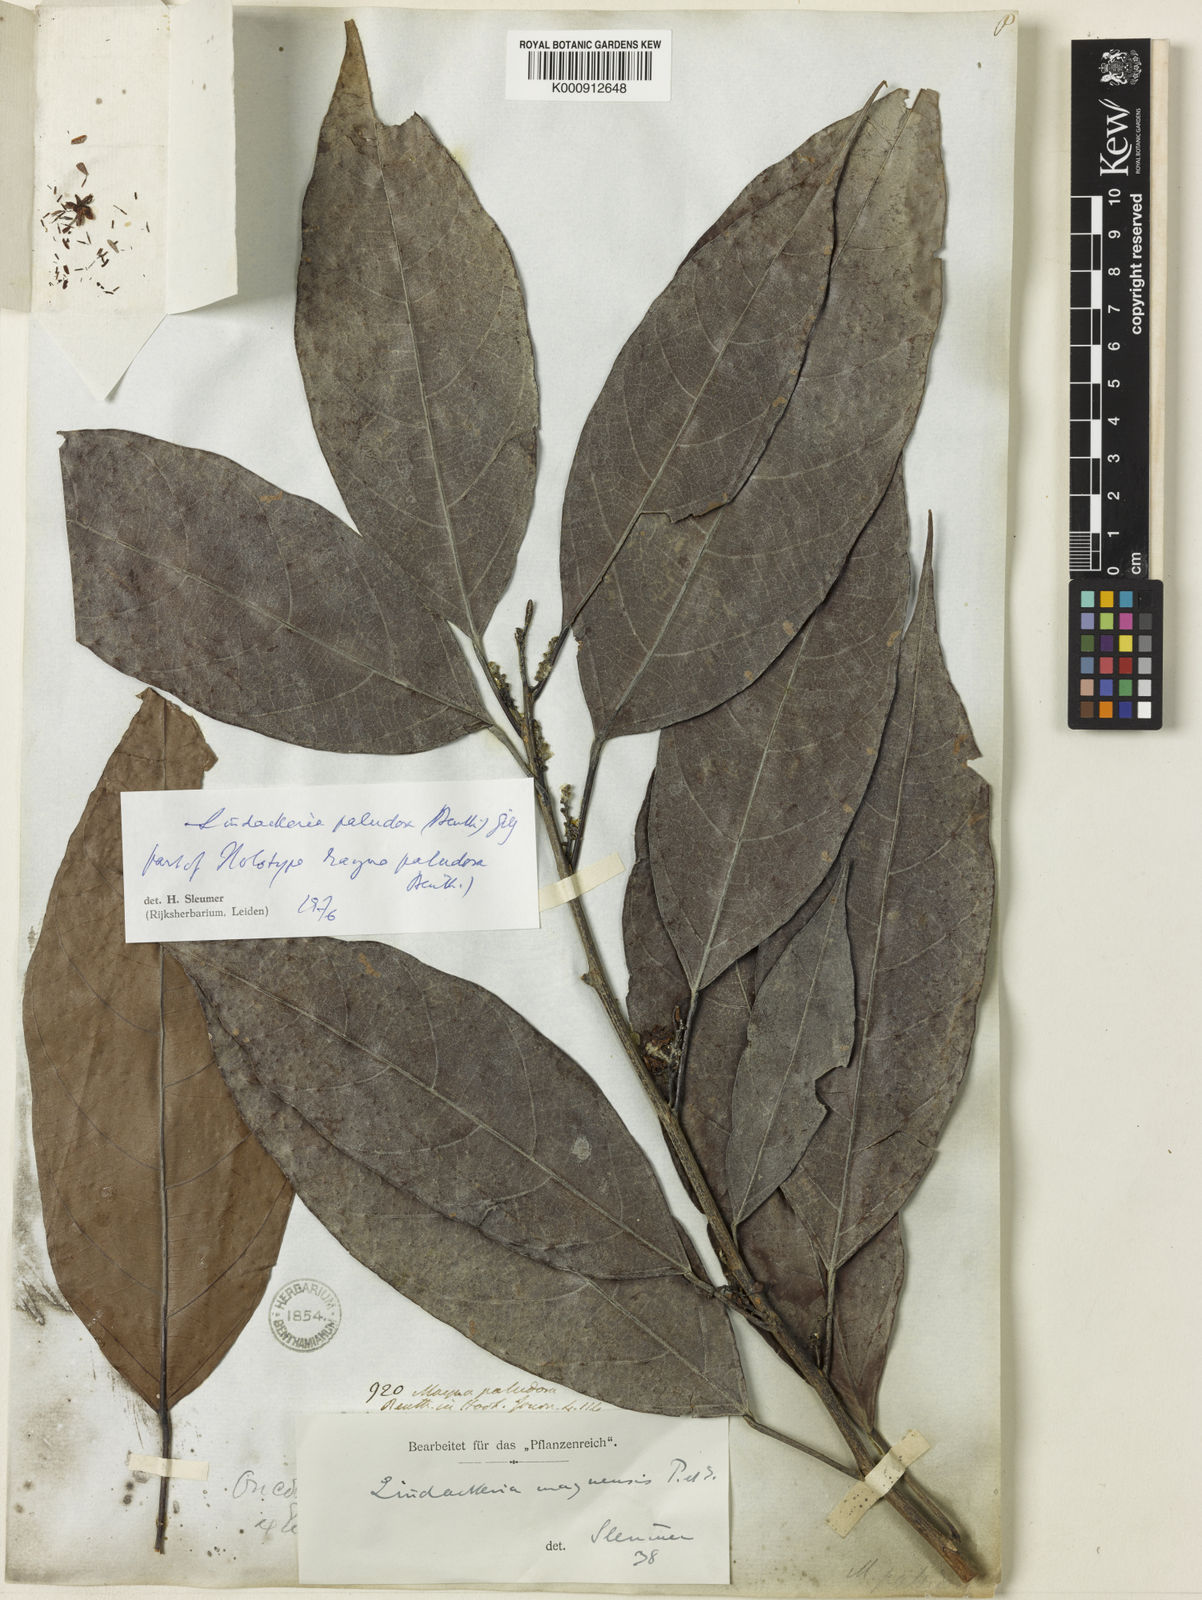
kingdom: Plantae
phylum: Tracheophyta
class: Magnoliopsida
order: Malpighiales
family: Achariaceae
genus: Lindackeria
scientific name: Lindackeria paludosa
